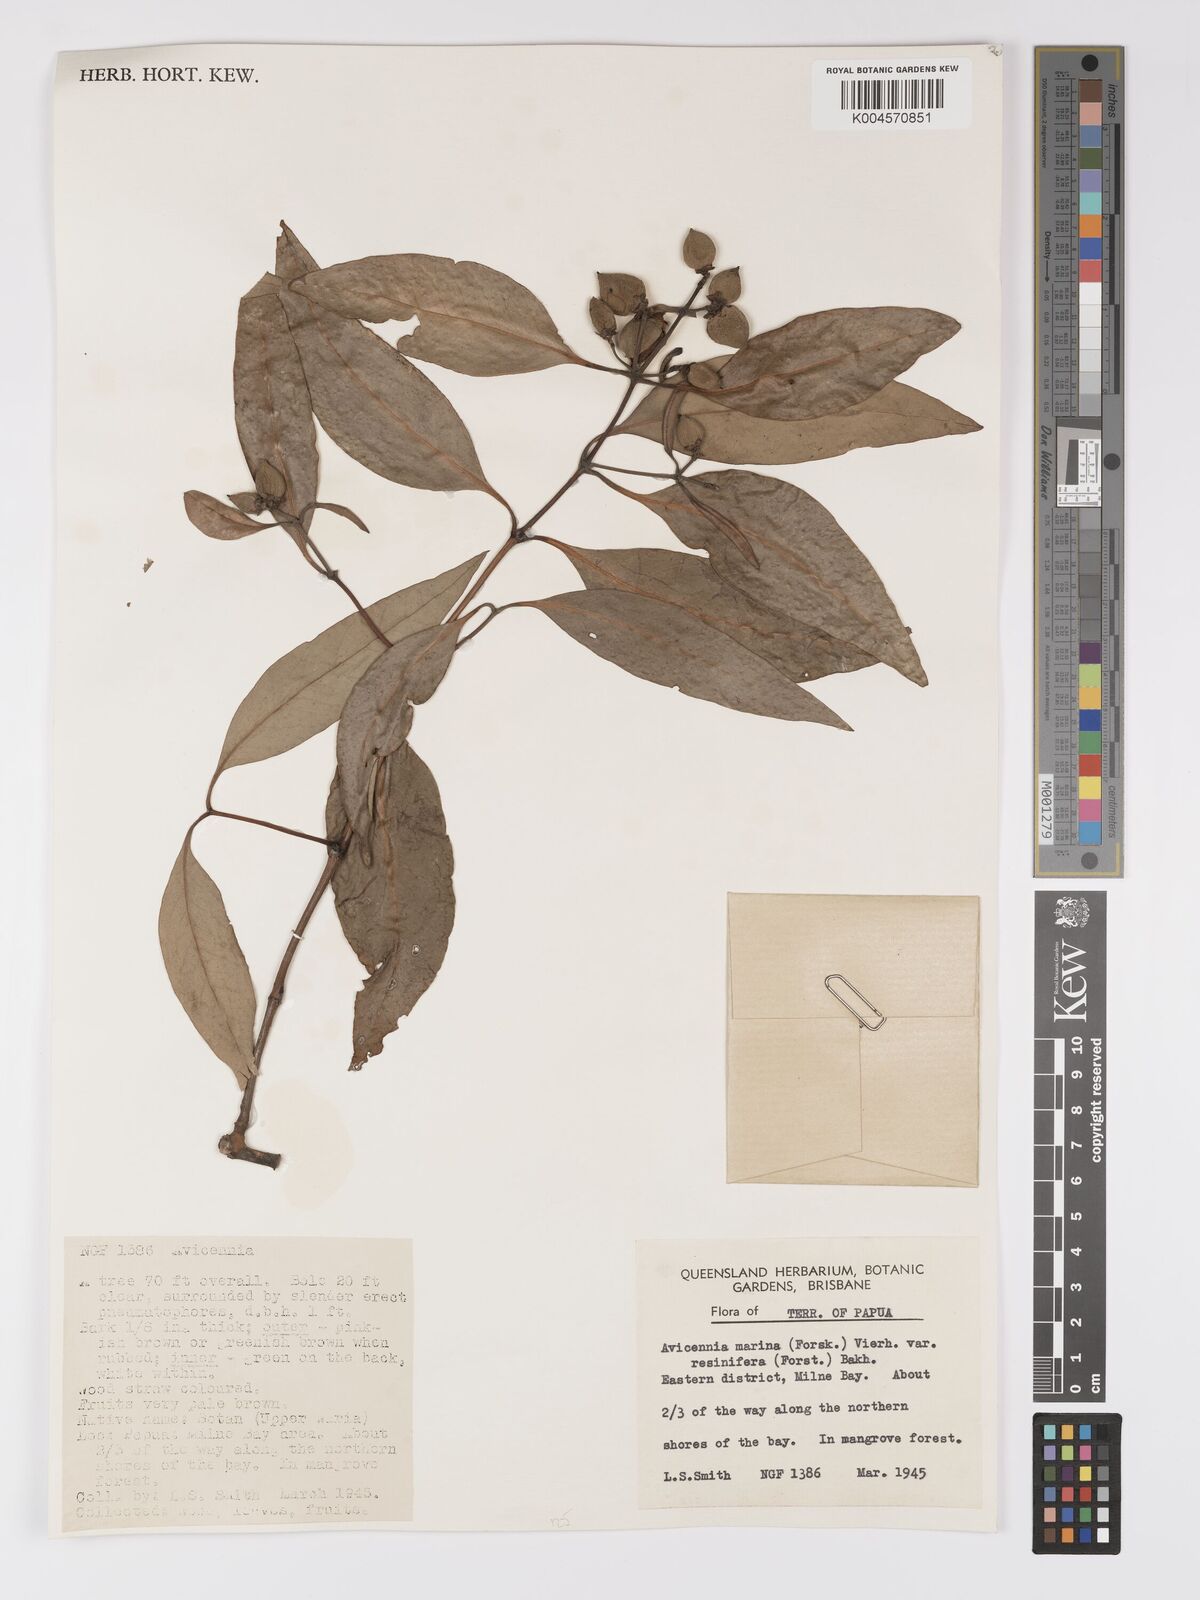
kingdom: Plantae
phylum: Tracheophyta
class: Magnoliopsida
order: Lamiales
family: Acanthaceae
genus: Avicennia
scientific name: Avicennia marina
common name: Gray mangrove
